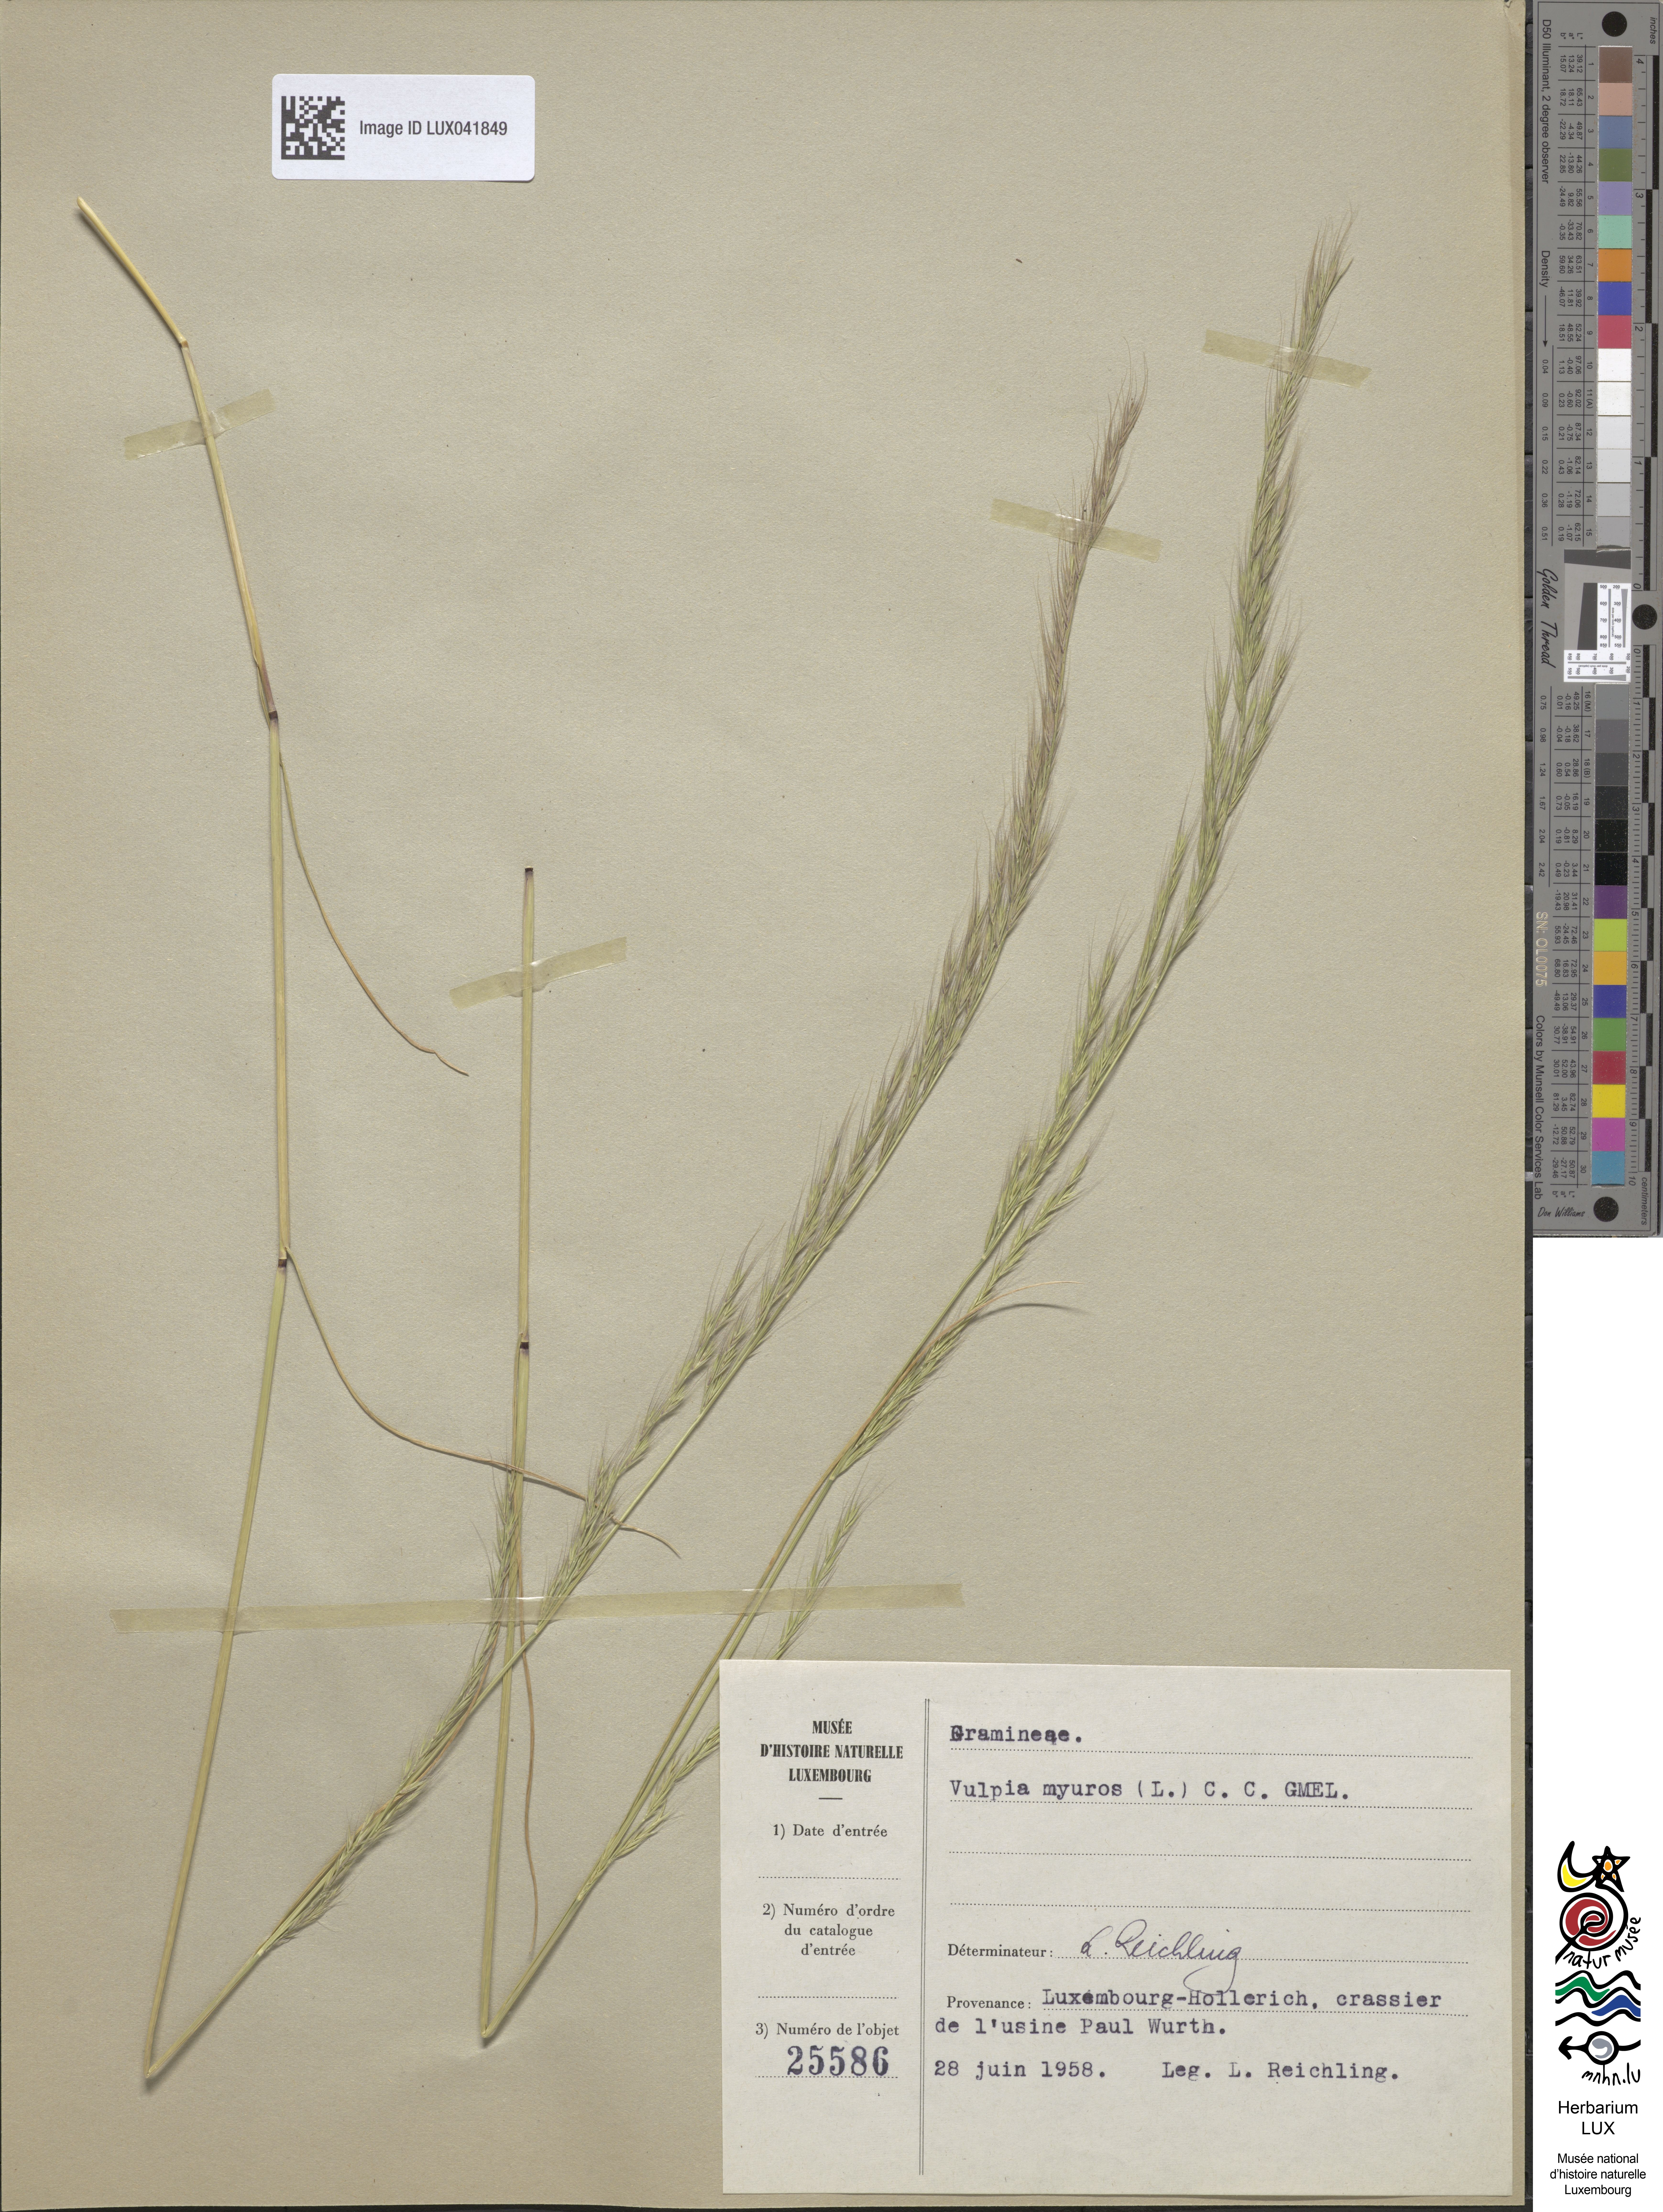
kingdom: Plantae
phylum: Tracheophyta
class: Liliopsida
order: Poales
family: Poaceae
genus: Festuca
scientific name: Festuca myuros
